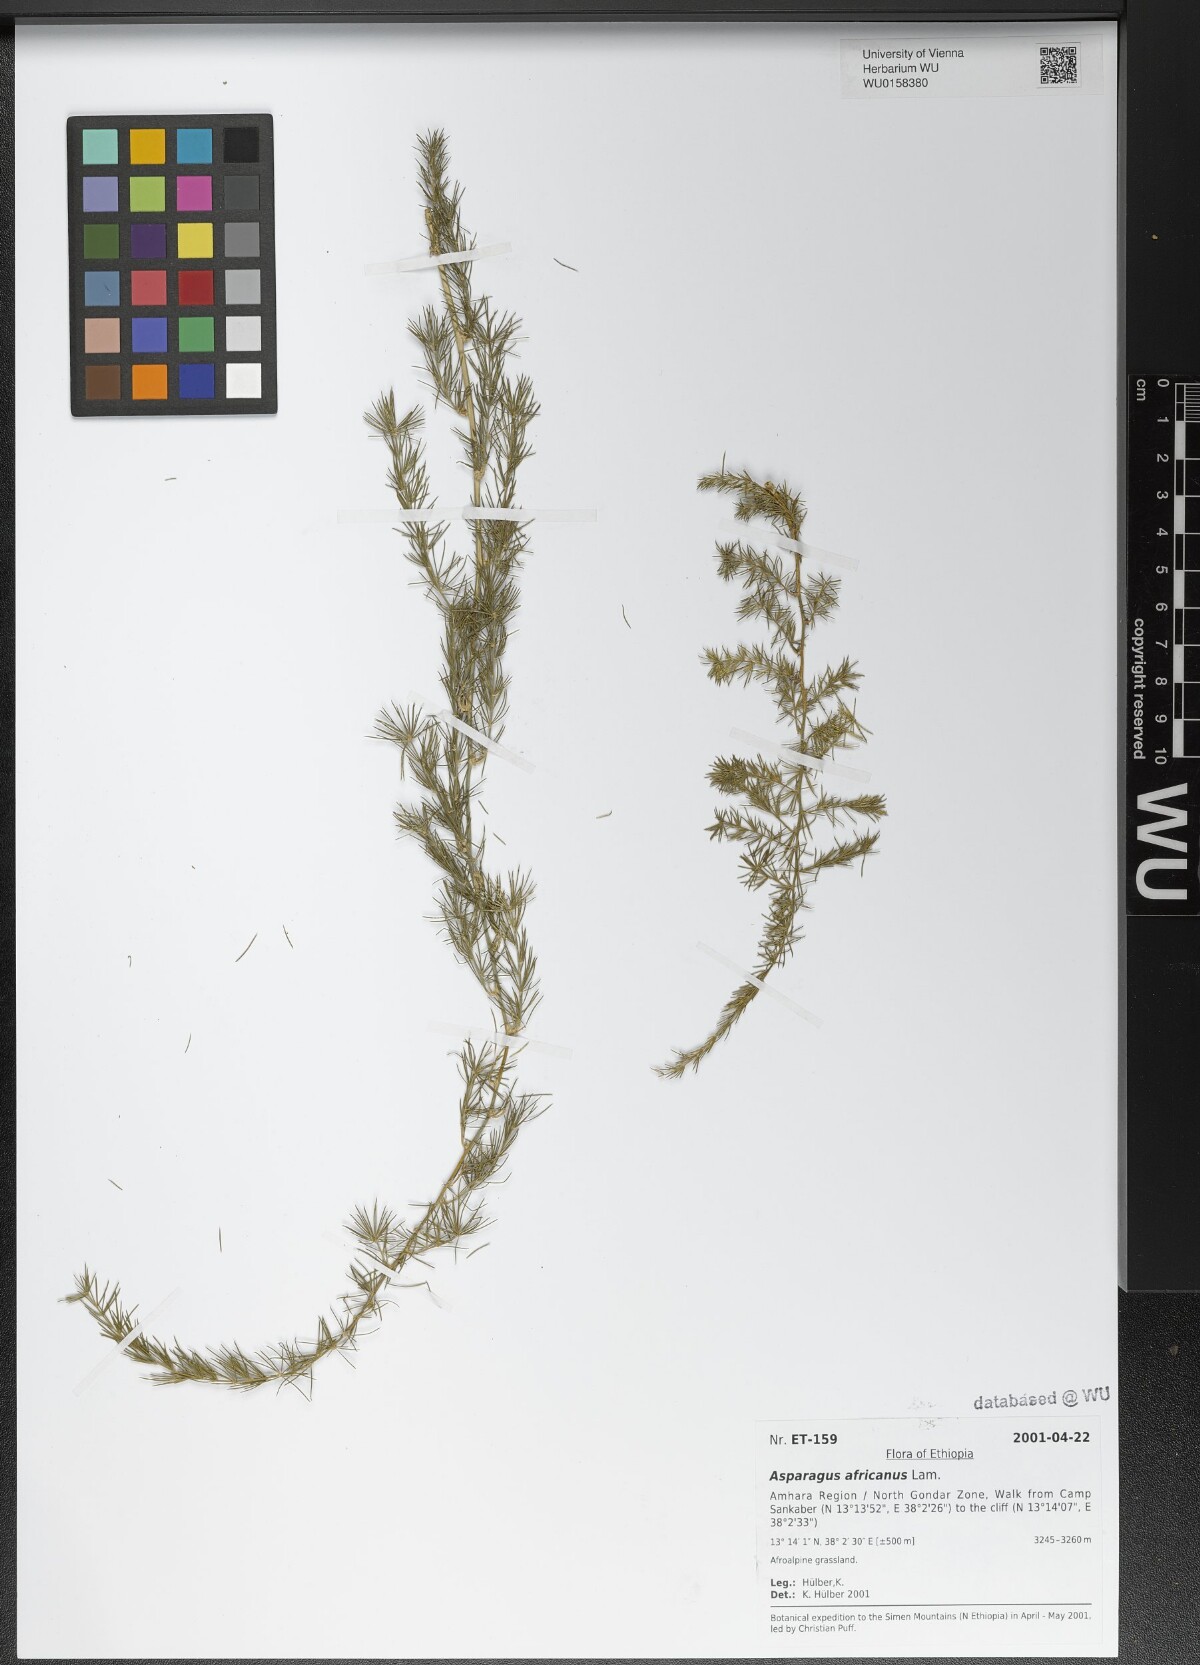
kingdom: Plantae
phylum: Tracheophyta
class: Liliopsida
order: Asparagales
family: Asparagaceae
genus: Asparagus
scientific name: Asparagus africanus
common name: Asparagus-fern
